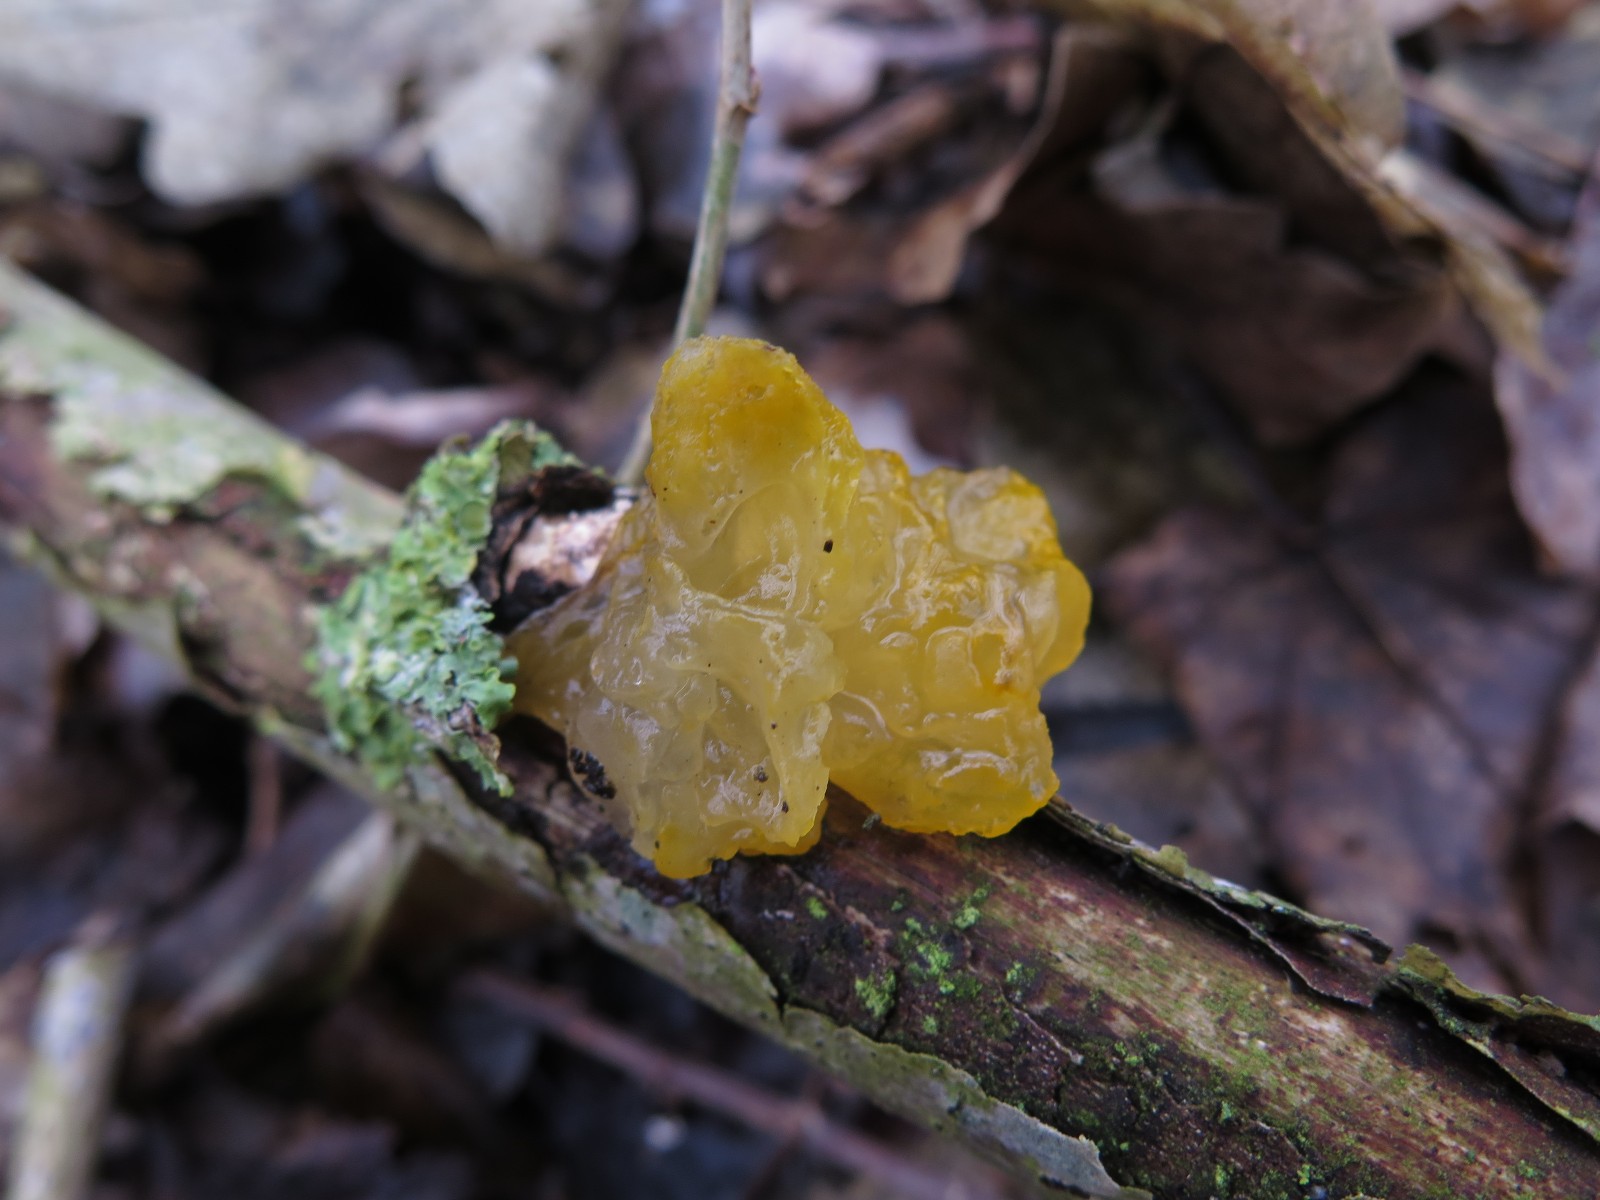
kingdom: Fungi
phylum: Basidiomycota
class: Tremellomycetes
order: Tremellales
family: Tremellaceae
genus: Tremella
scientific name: Tremella mesenterica
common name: gul bævresvamp
